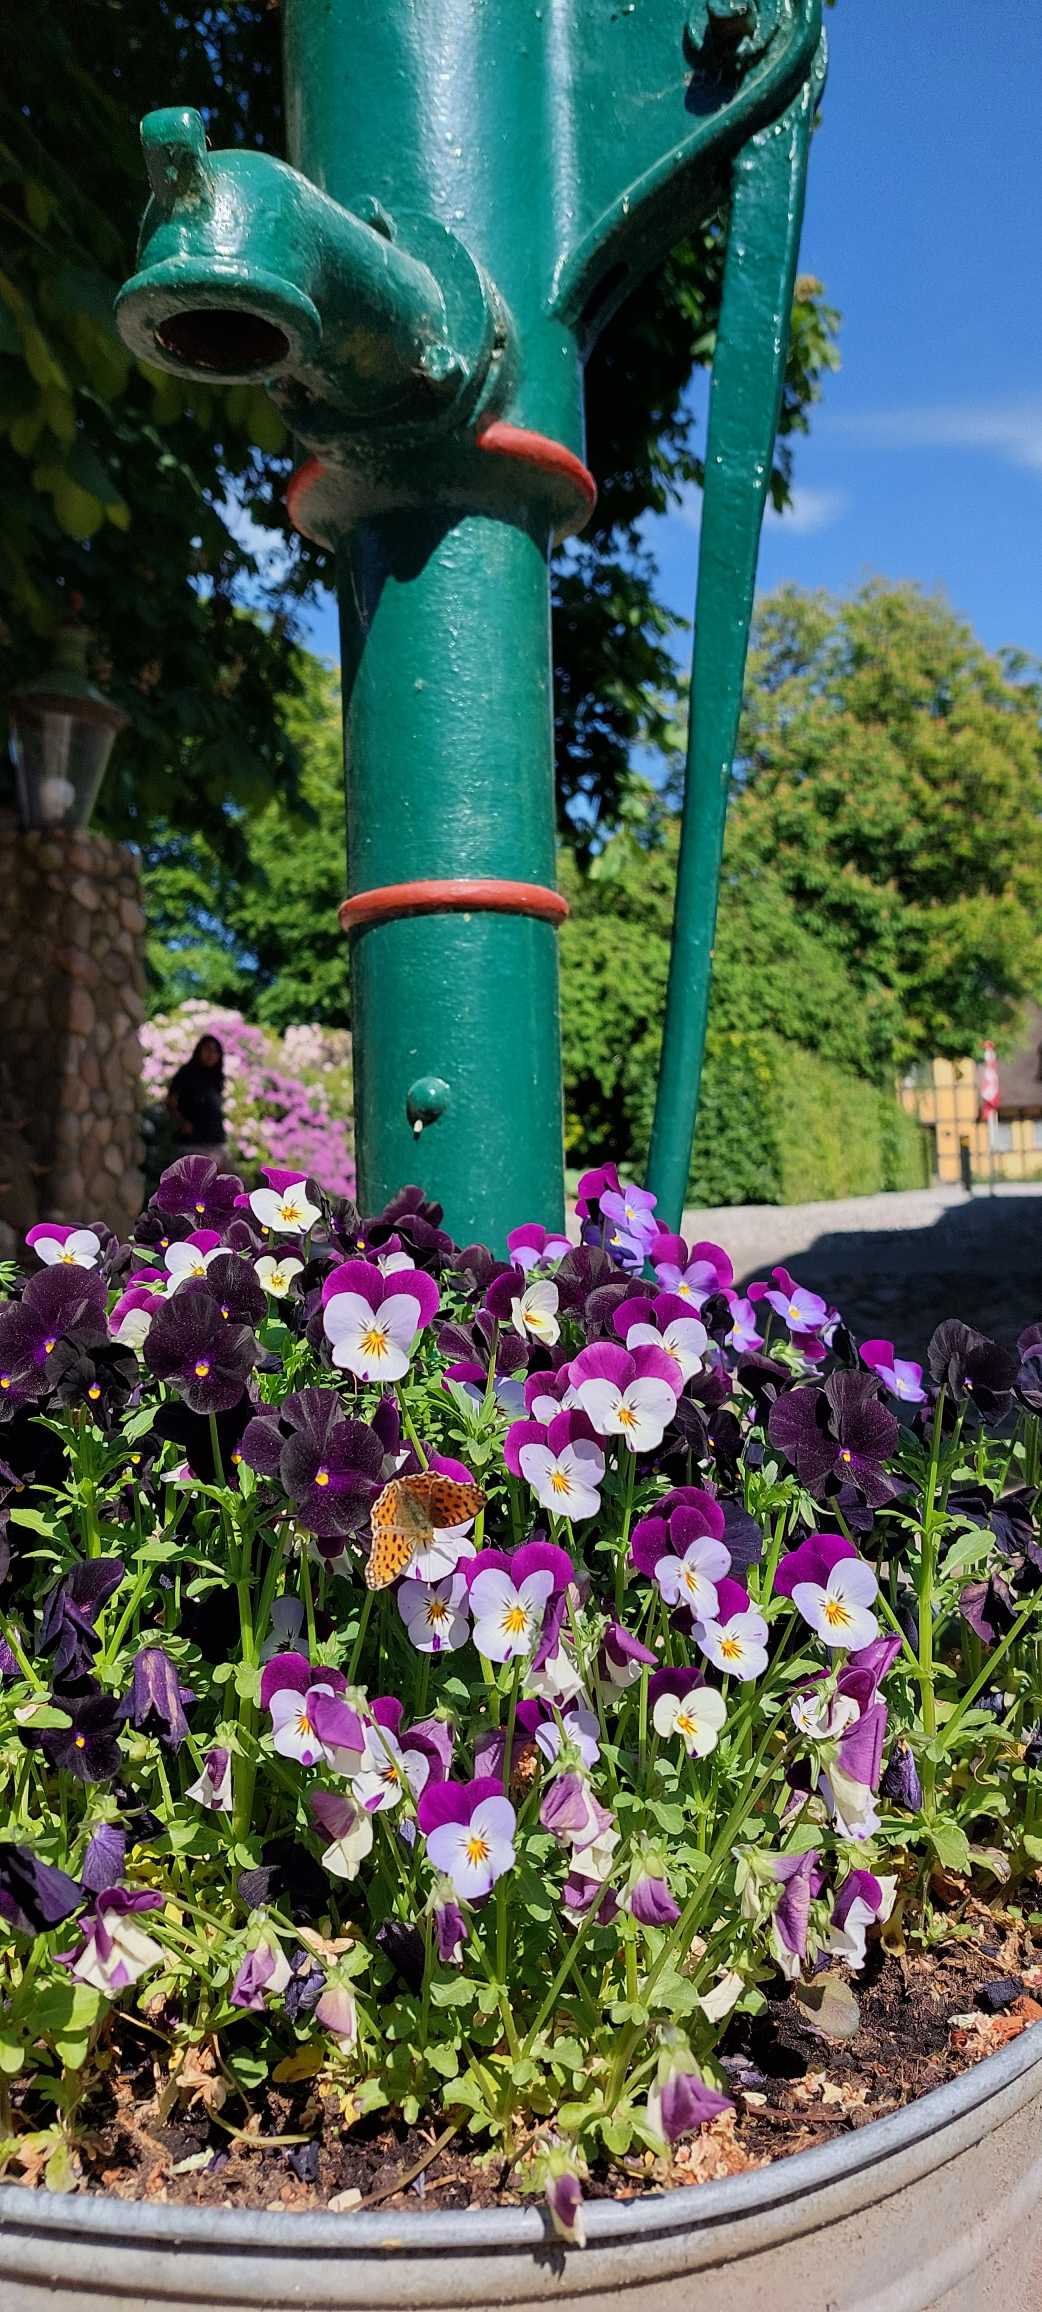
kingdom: Animalia
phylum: Arthropoda
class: Insecta
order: Lepidoptera
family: Nymphalidae
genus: Issoria
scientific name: Issoria lathonia
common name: Storplettet perlemorsommerfugl
